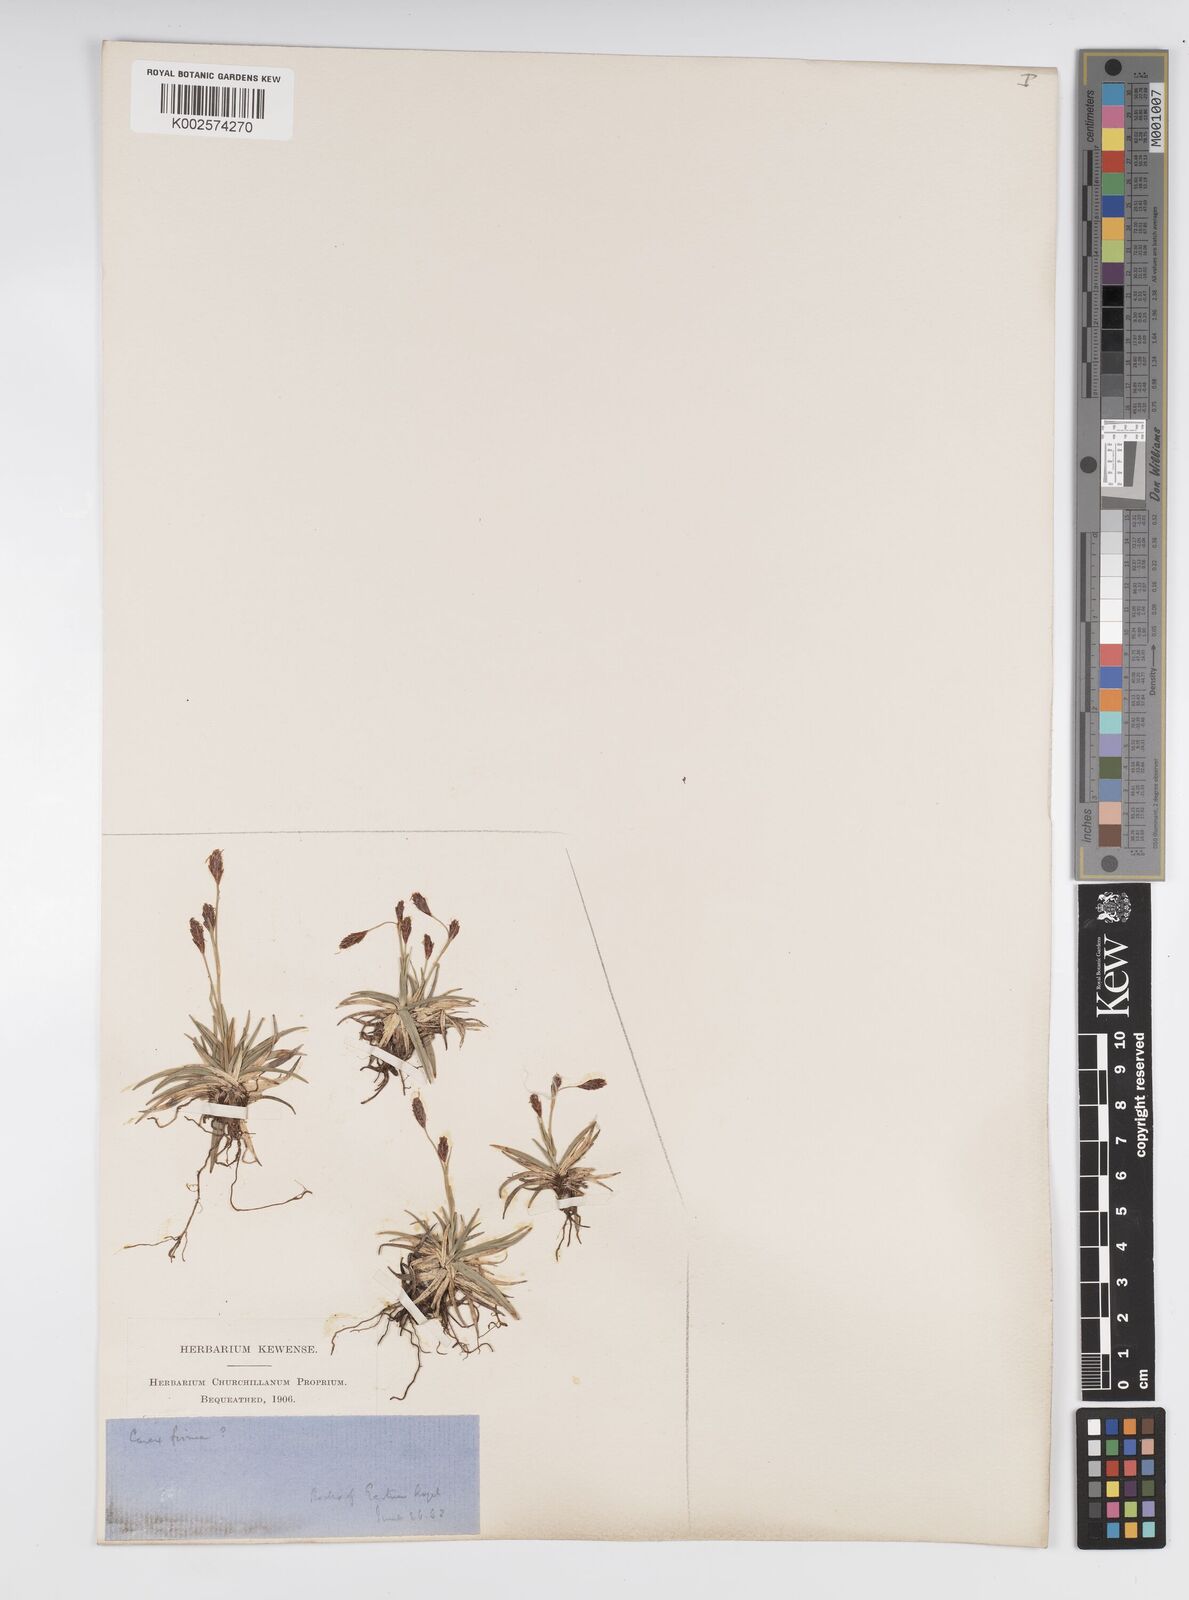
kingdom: Plantae
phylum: Tracheophyta
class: Liliopsida
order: Poales
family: Cyperaceae
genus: Carex
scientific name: Carex frigida
